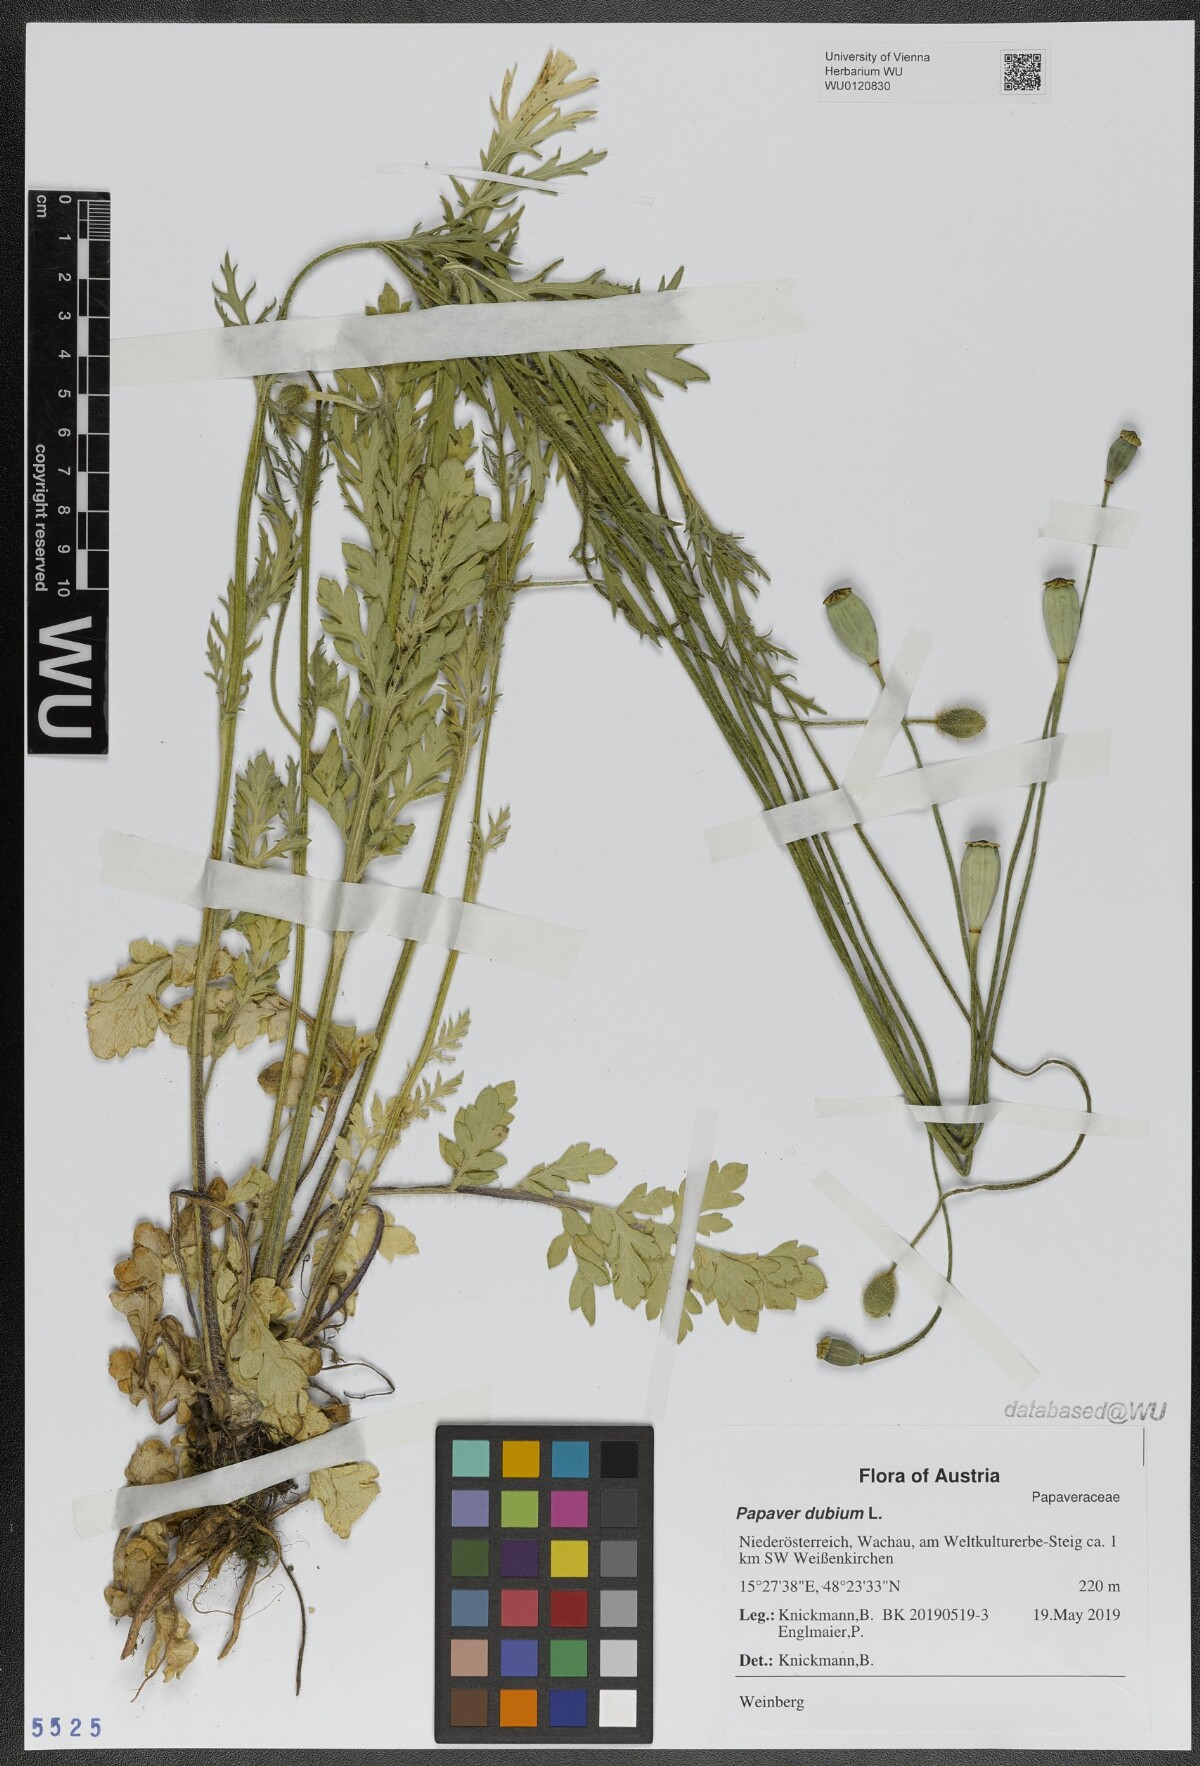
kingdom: Plantae
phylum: Tracheophyta
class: Magnoliopsida
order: Ranunculales
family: Papaveraceae
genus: Papaver
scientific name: Papaver dubium
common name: Long-headed poppy
